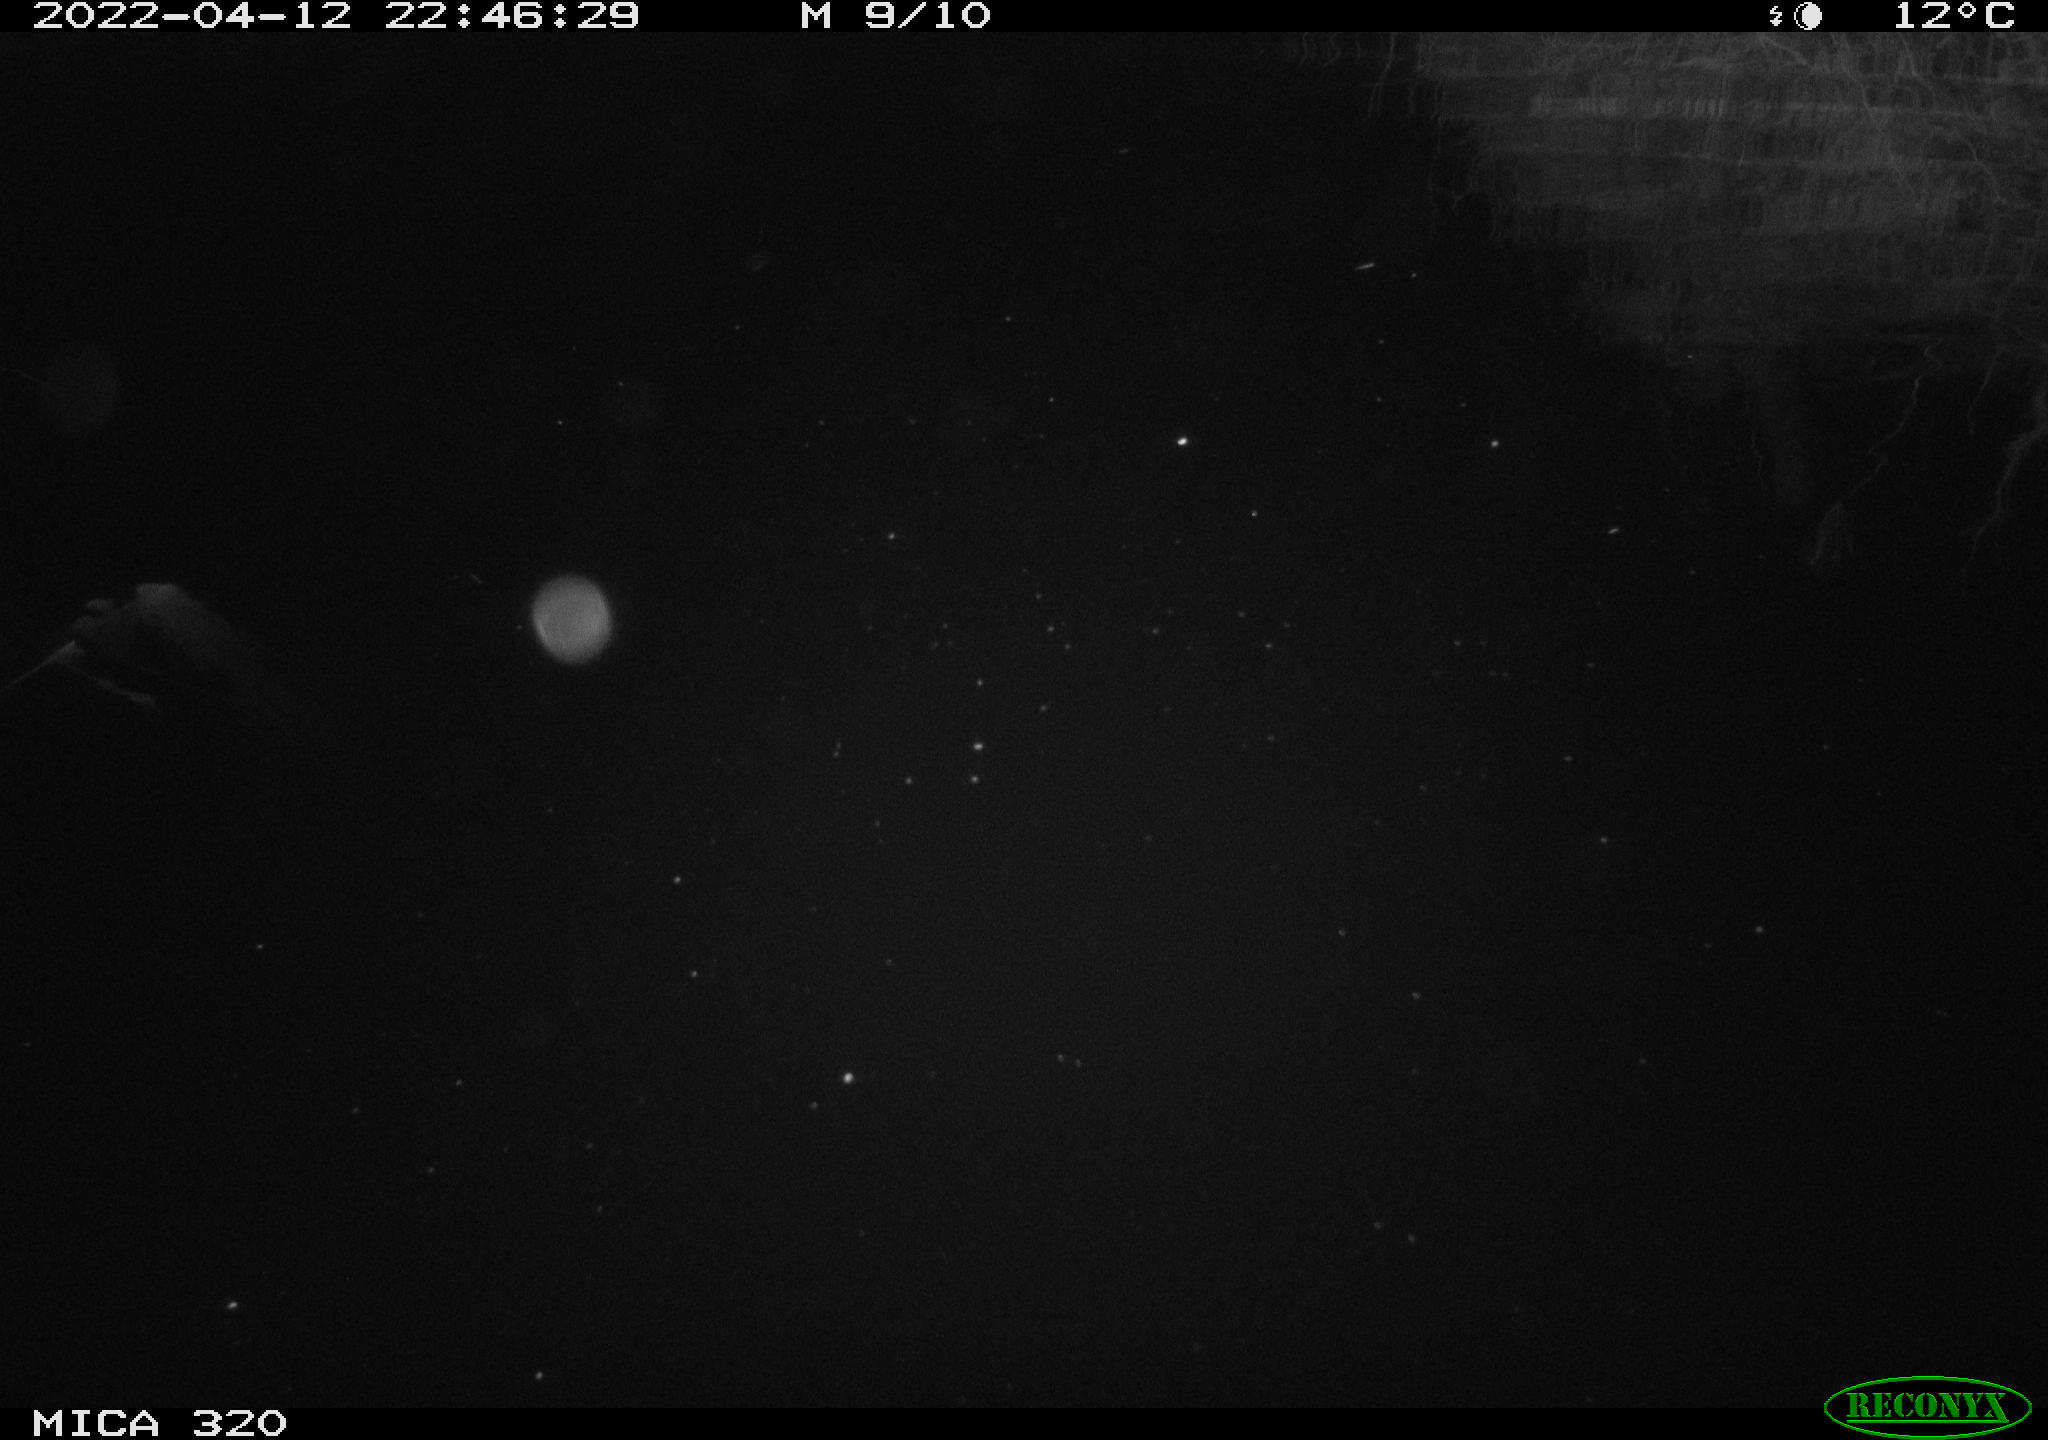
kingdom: Animalia
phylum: Chordata
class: Aves
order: Anseriformes
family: Anatidae
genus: Anas
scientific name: Anas platyrhynchos
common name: Mallard
